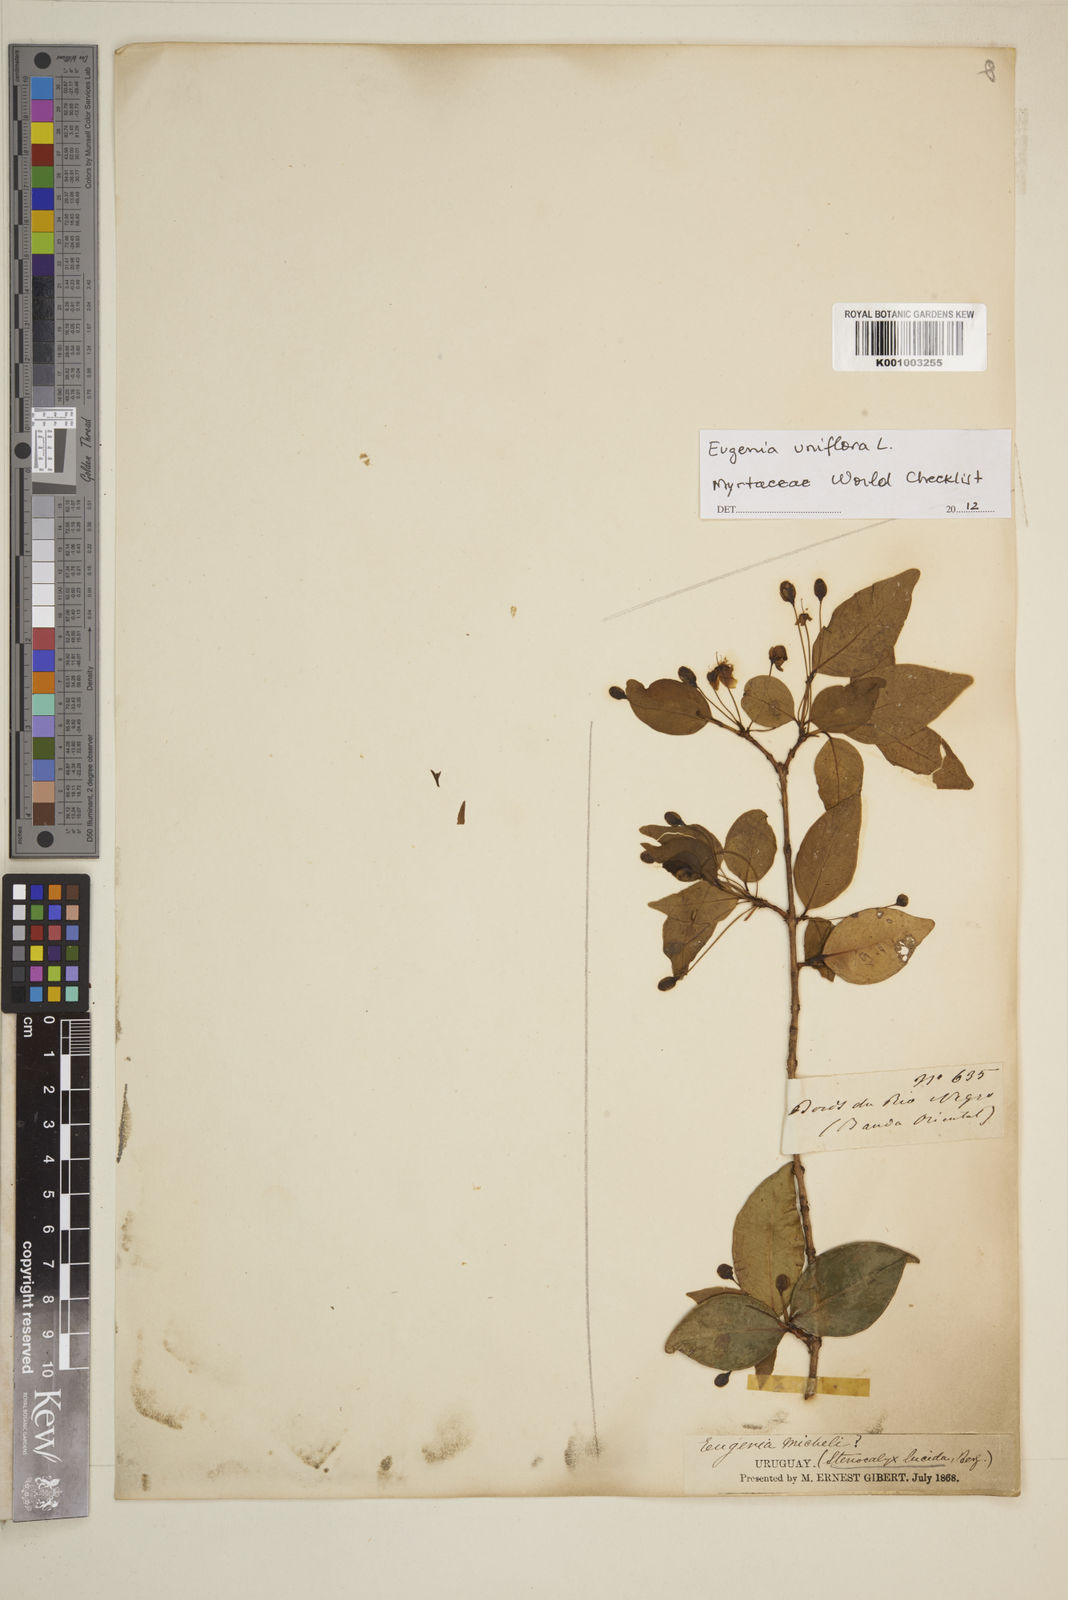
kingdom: Plantae
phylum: Tracheophyta
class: Magnoliopsida
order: Myrtales
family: Myrtaceae
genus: Eugenia
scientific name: Eugenia uniflora
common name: Surinam cherry
